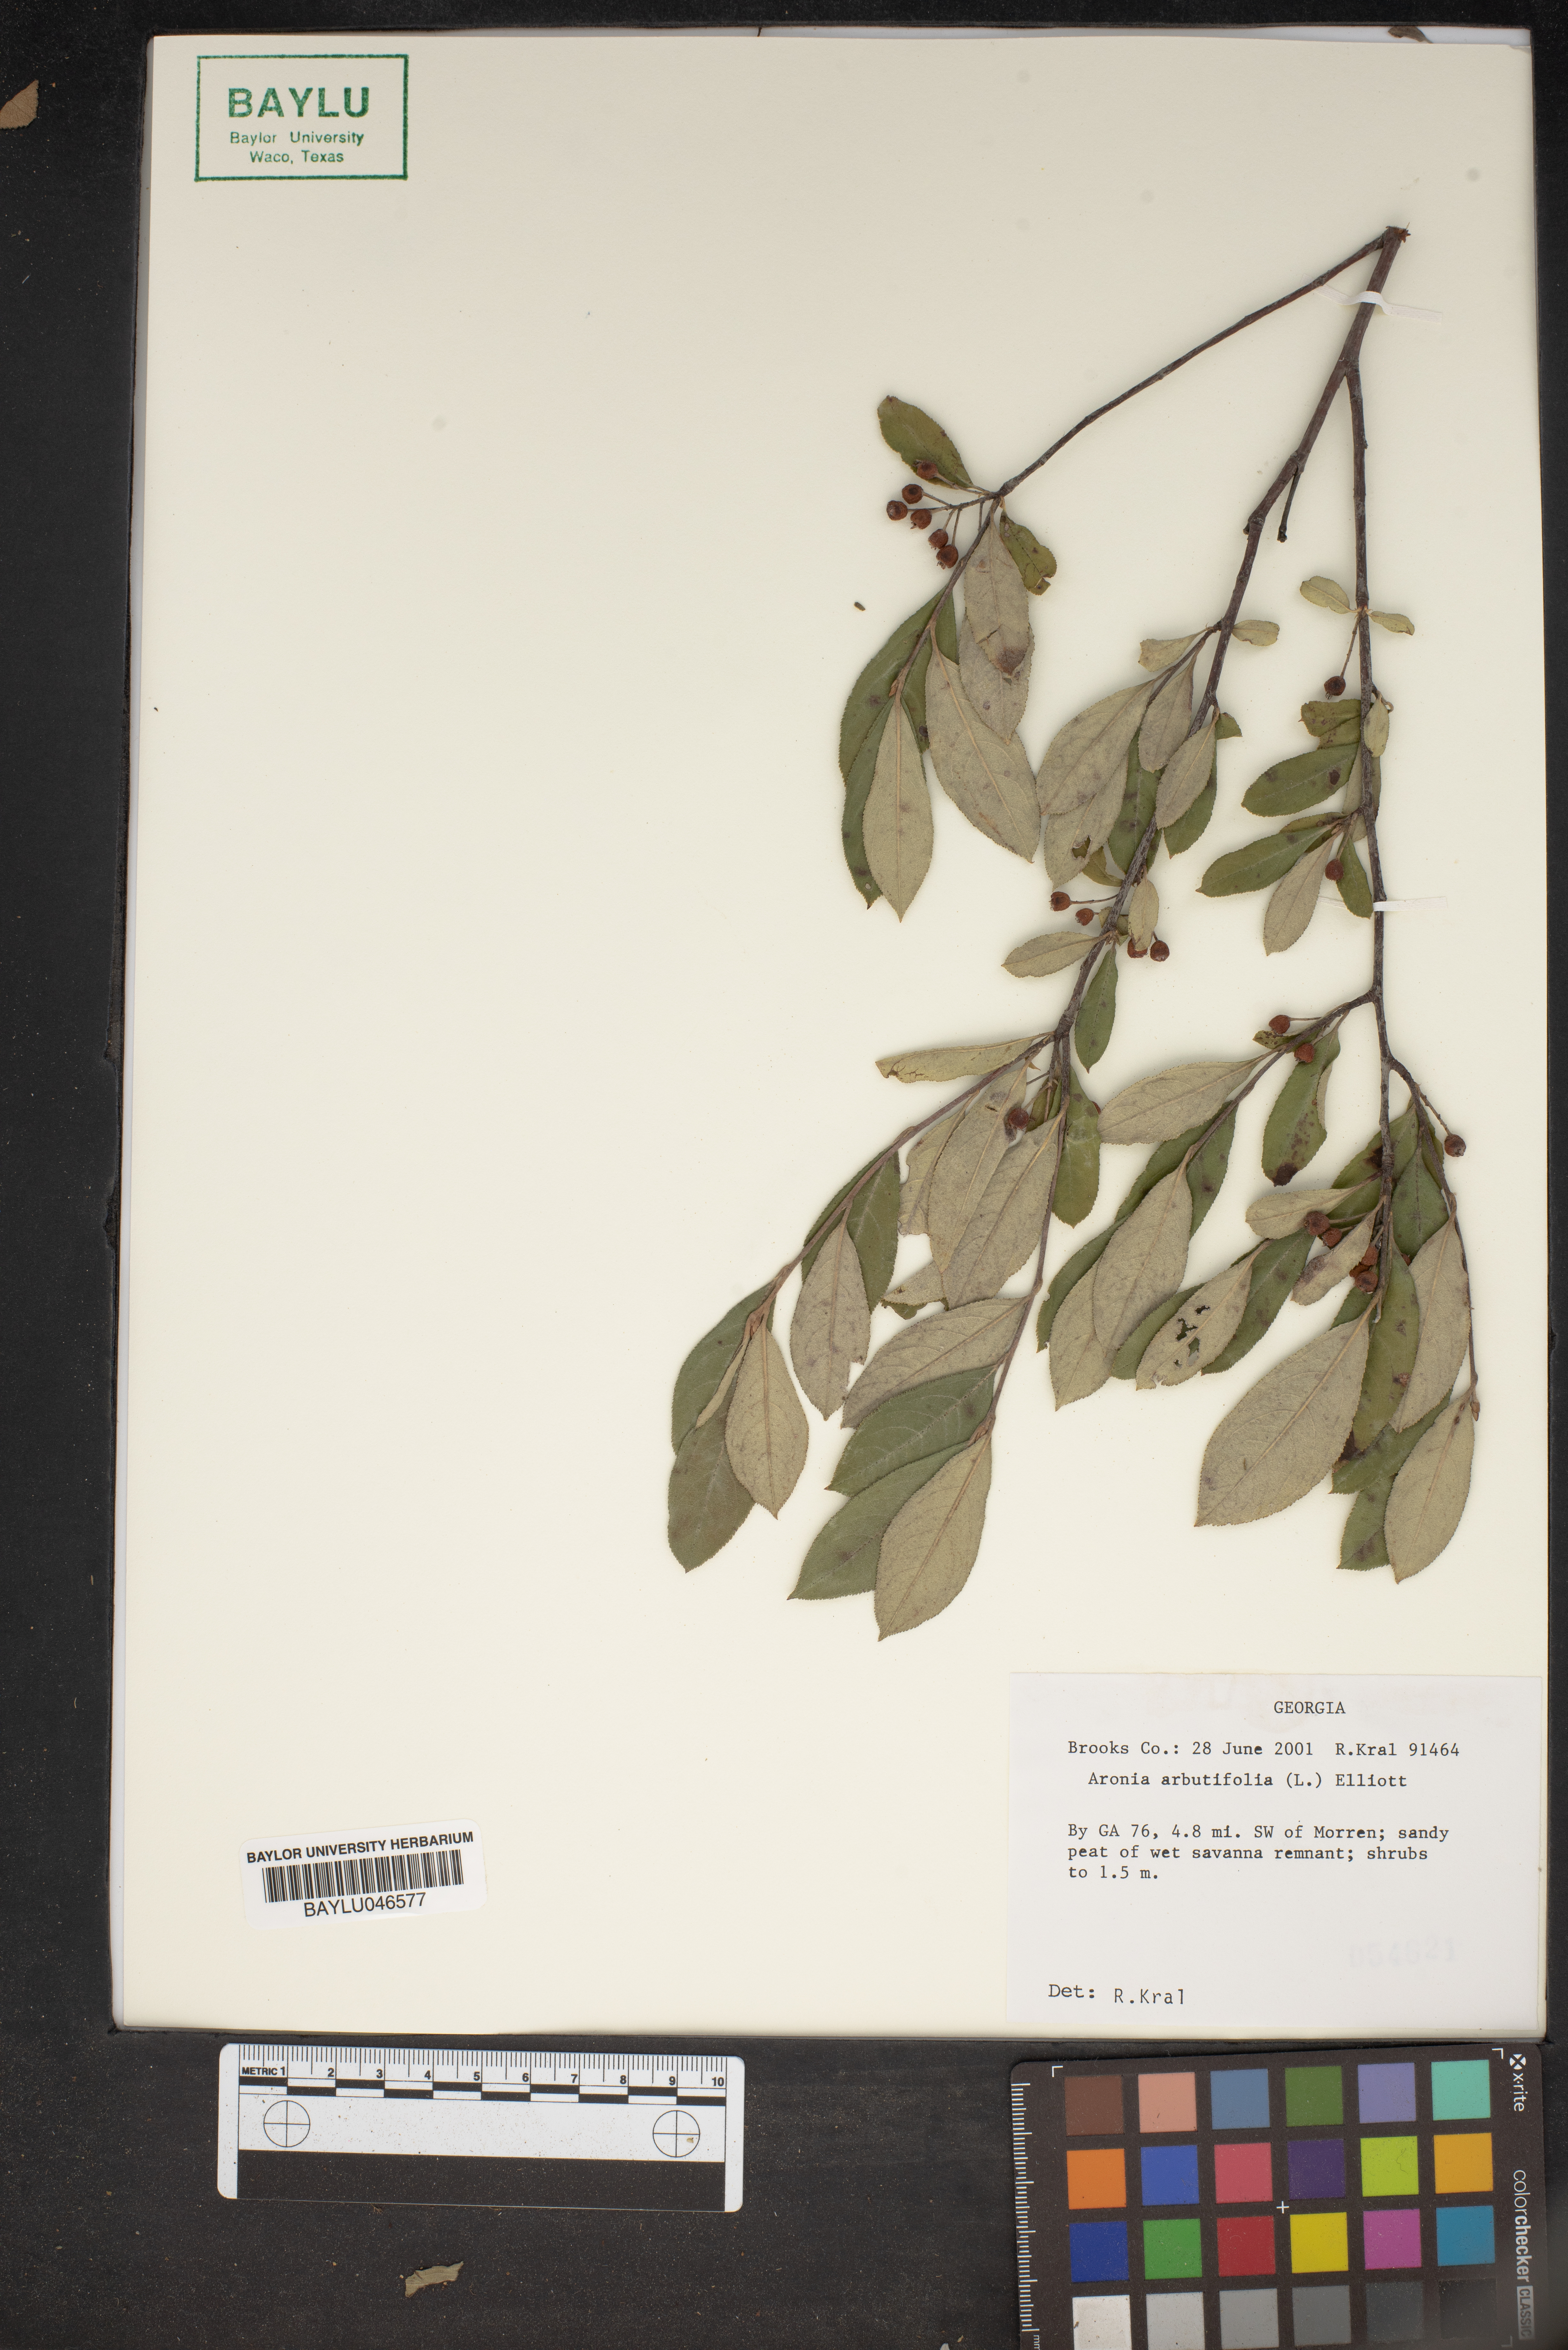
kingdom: Plantae
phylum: Tracheophyta
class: Magnoliopsida
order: Rosales
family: Rosaceae
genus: Aronia
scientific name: Aronia arbutifolia
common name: Red chokeberry
